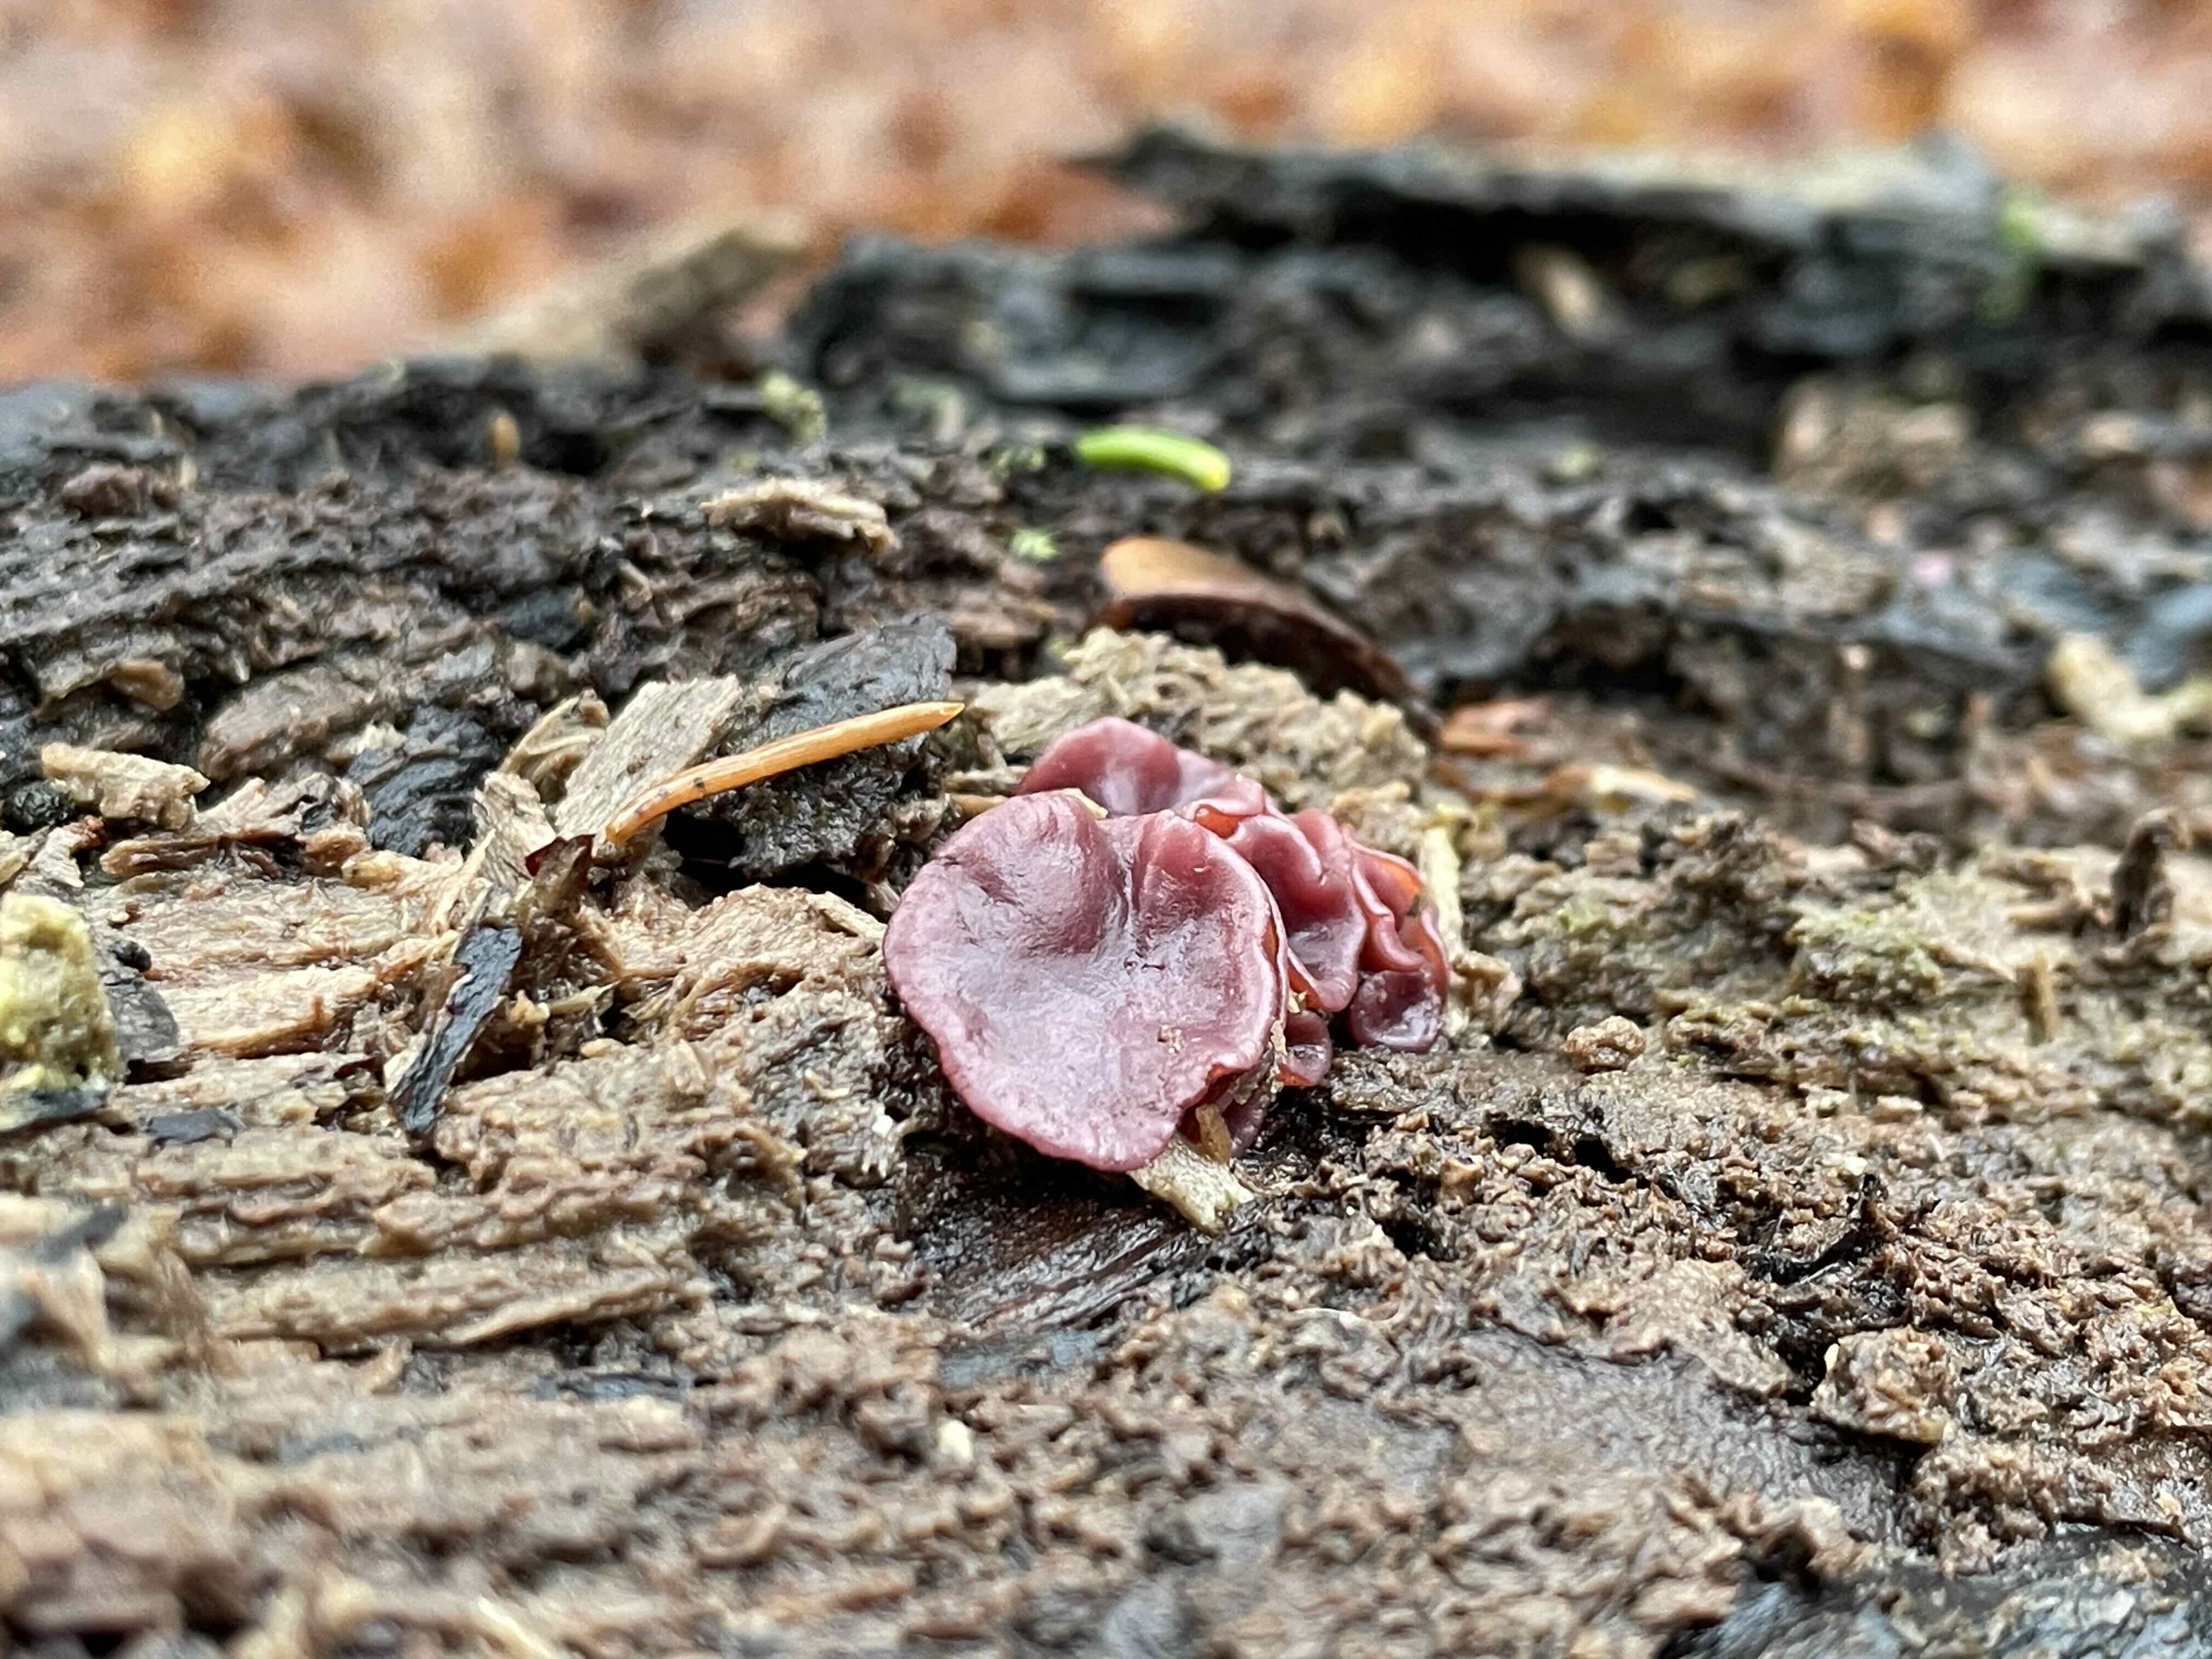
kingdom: Fungi
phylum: Ascomycota
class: Leotiomycetes
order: Helotiales
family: Gelatinodiscaceae
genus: Ascocoryne
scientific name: Ascocoryne cylichnium
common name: stor sejskive
